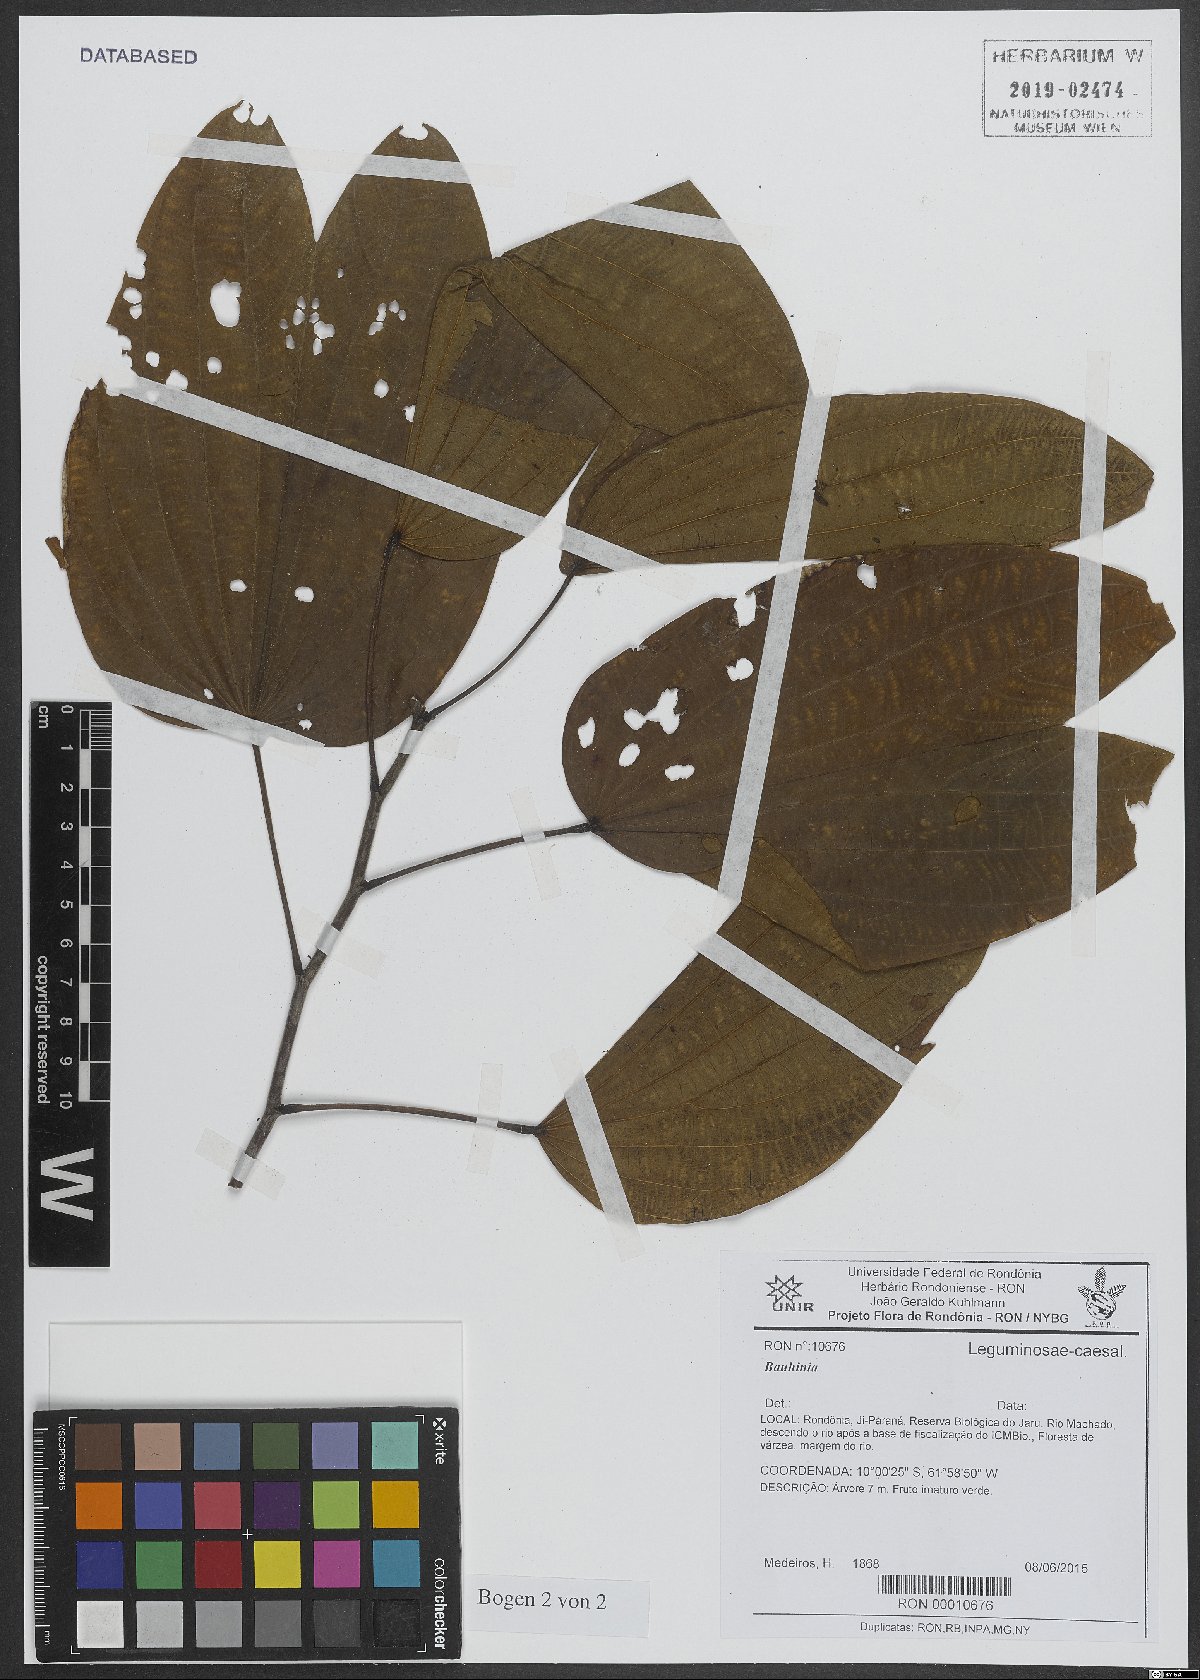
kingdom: Plantae
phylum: Tracheophyta
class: Magnoliopsida
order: Fabales
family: Fabaceae
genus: Bauhinia
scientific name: Bauhinia
